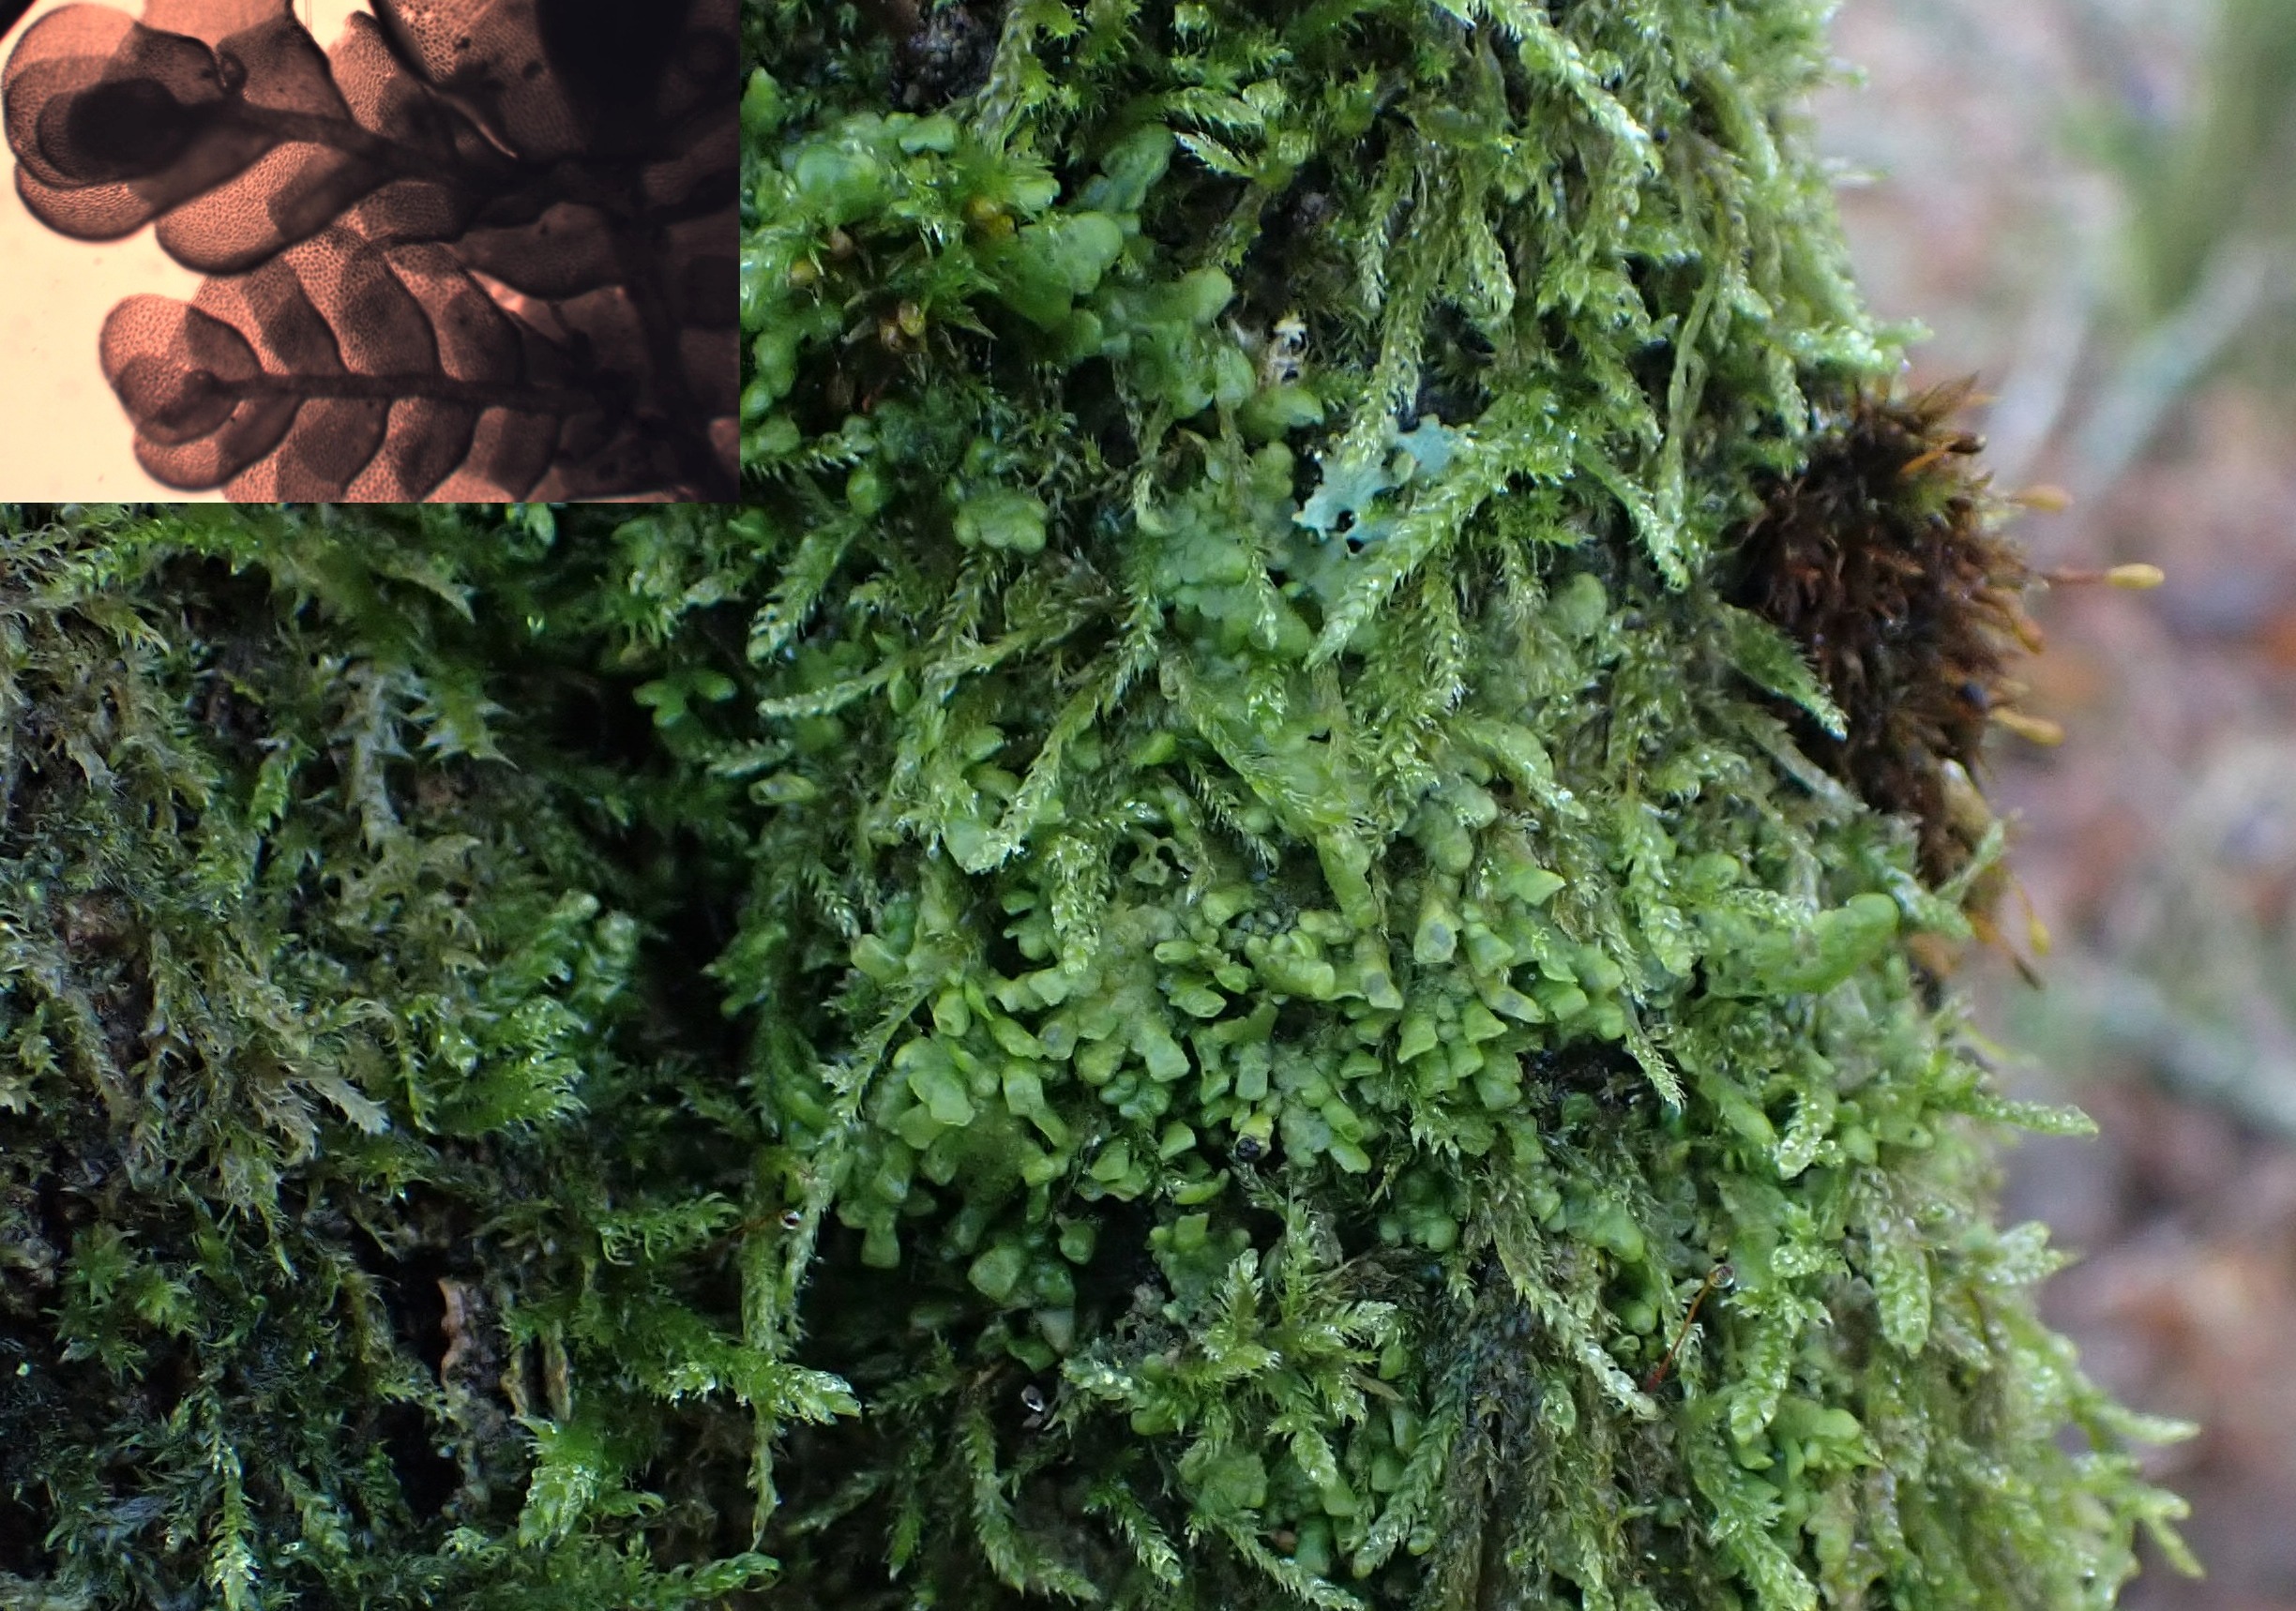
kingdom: Plantae
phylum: Marchantiophyta
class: Jungermanniopsida
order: Porellales
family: Radulaceae
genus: Radula
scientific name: Radula complanata
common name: Almindelig spartelmos
